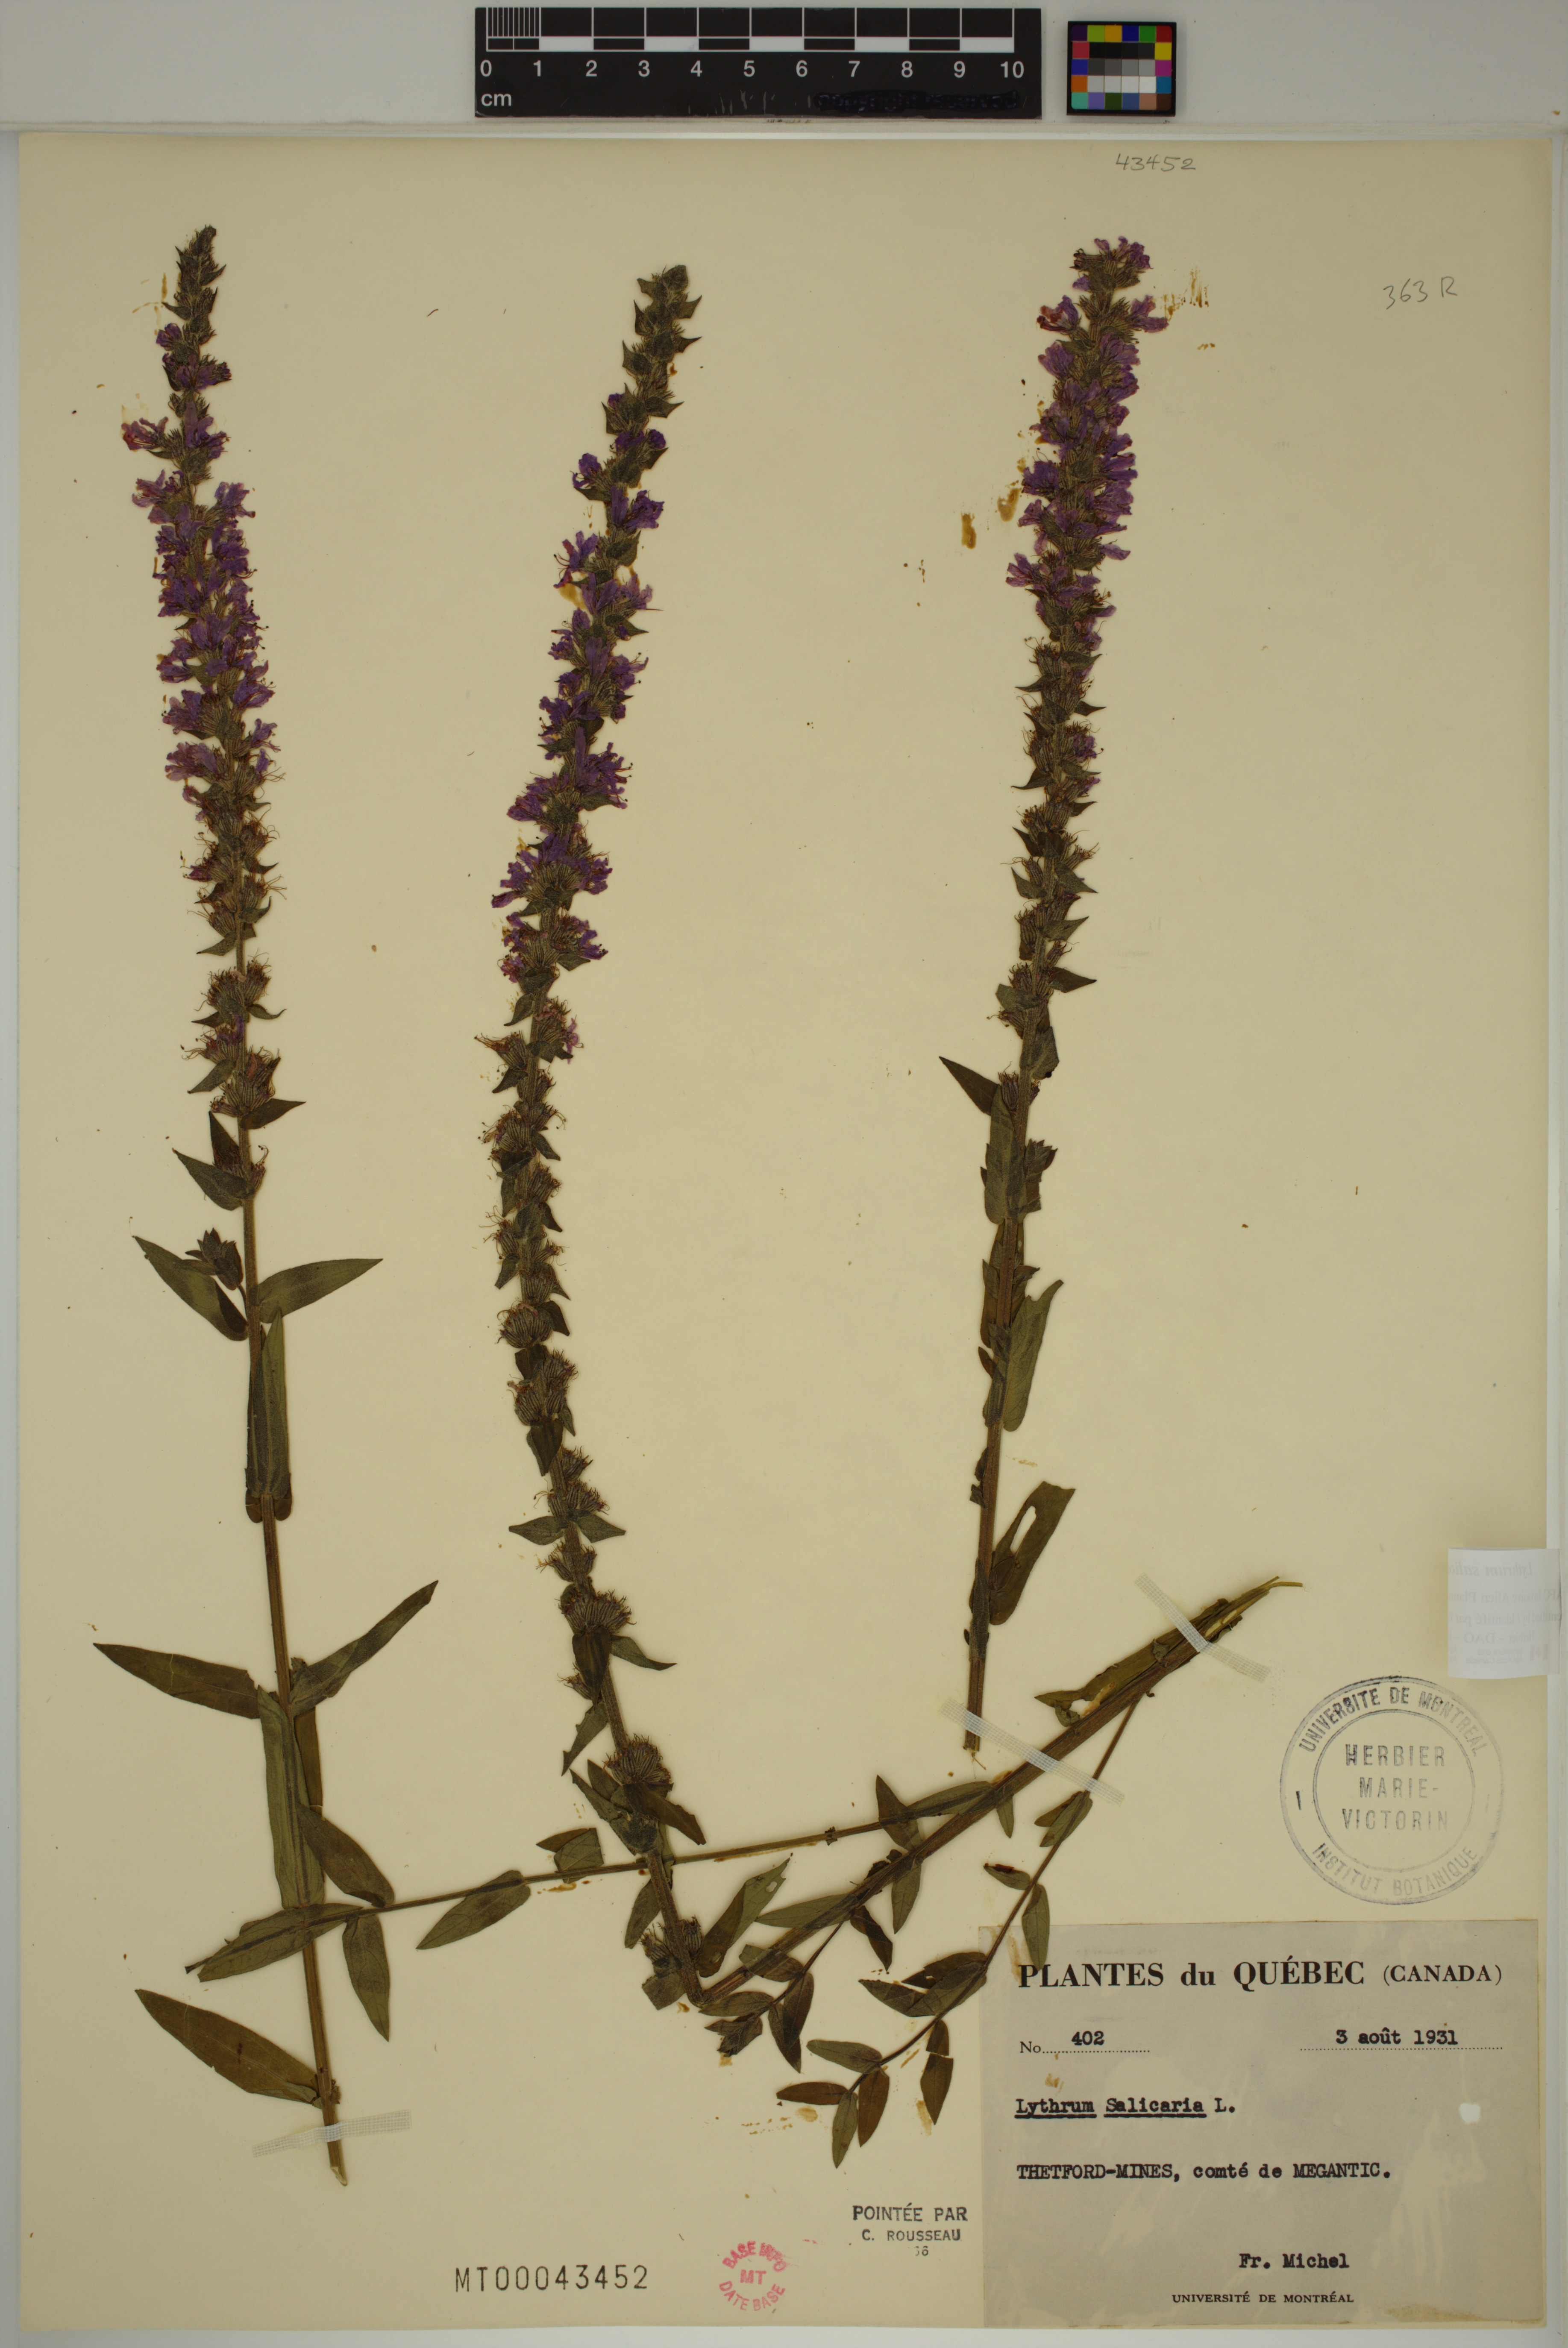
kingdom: Plantae
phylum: Tracheophyta
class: Magnoliopsida
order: Myrtales
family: Lythraceae
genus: Lythrum
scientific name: Lythrum salicaria
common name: Purple loosestrife
